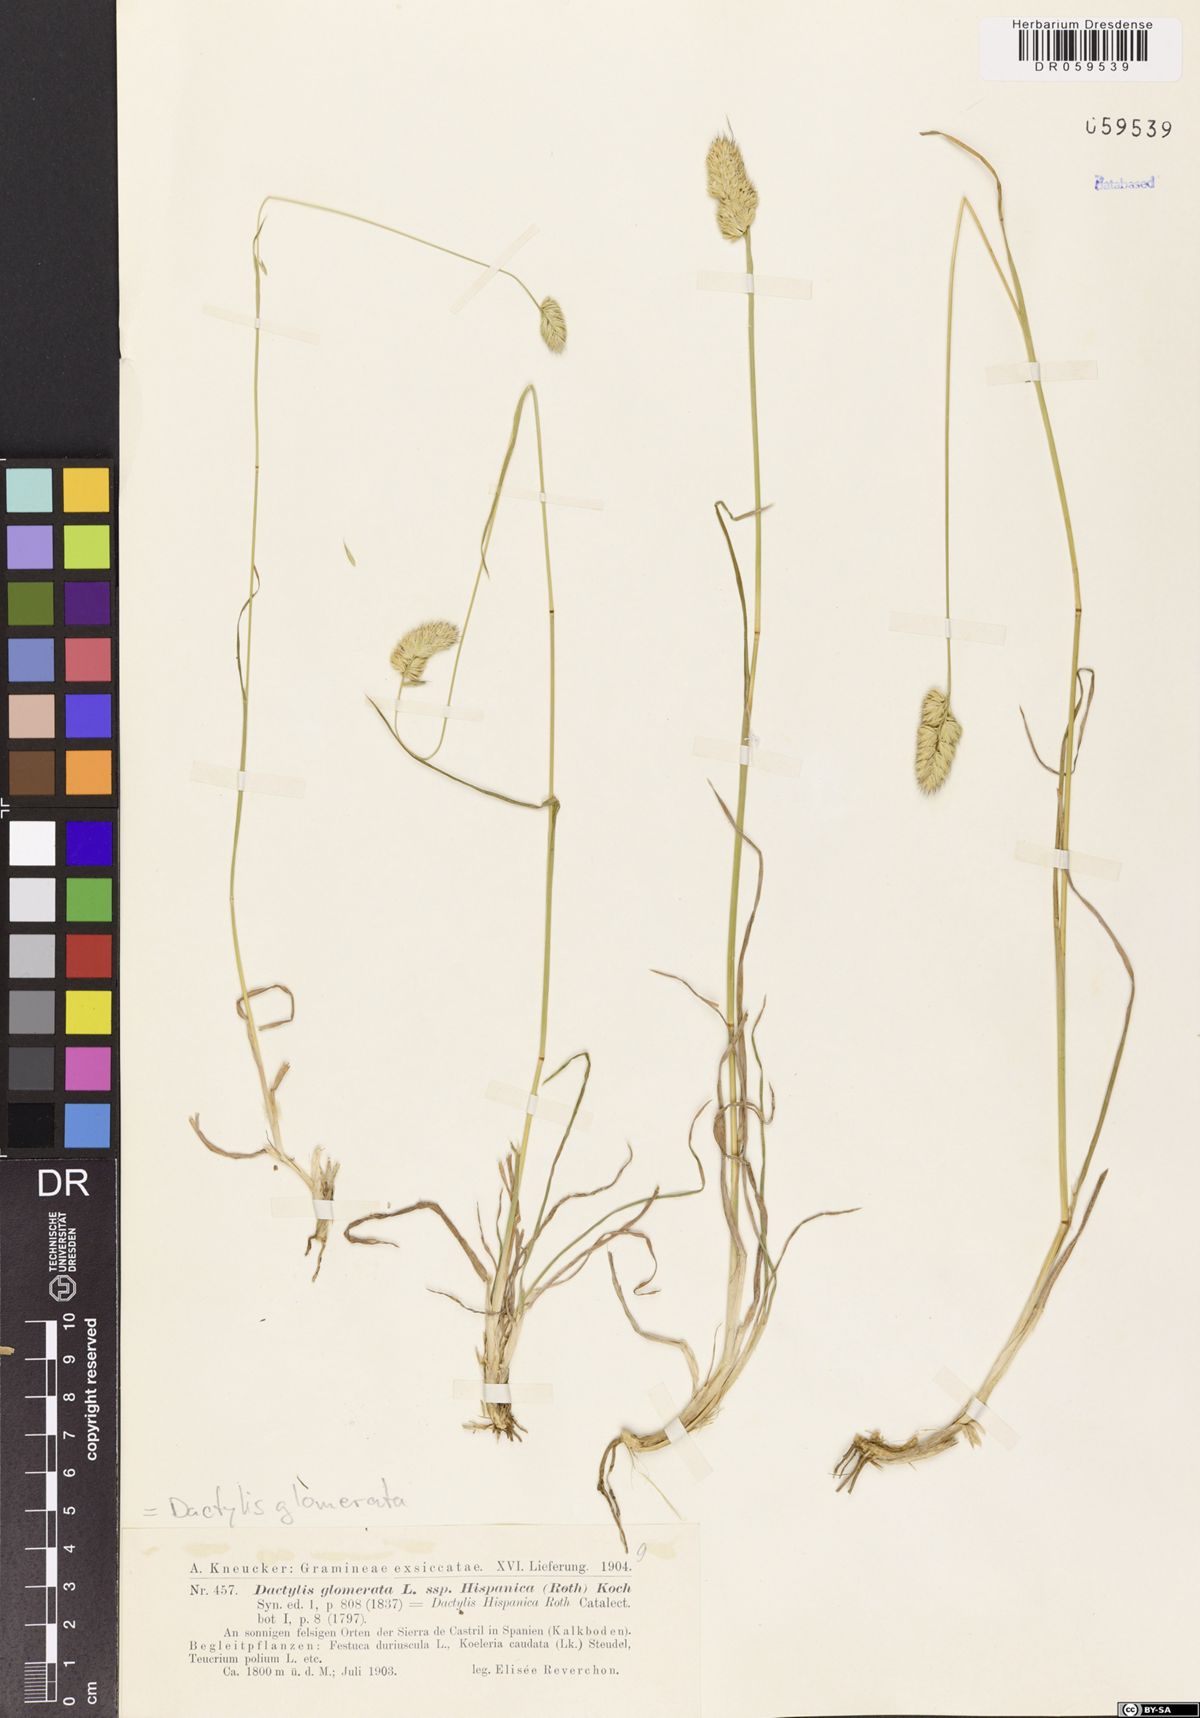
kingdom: Plantae
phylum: Tracheophyta
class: Liliopsida
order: Poales
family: Poaceae
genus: Dactylis
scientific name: Dactylis glomerata
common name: Orchardgrass
